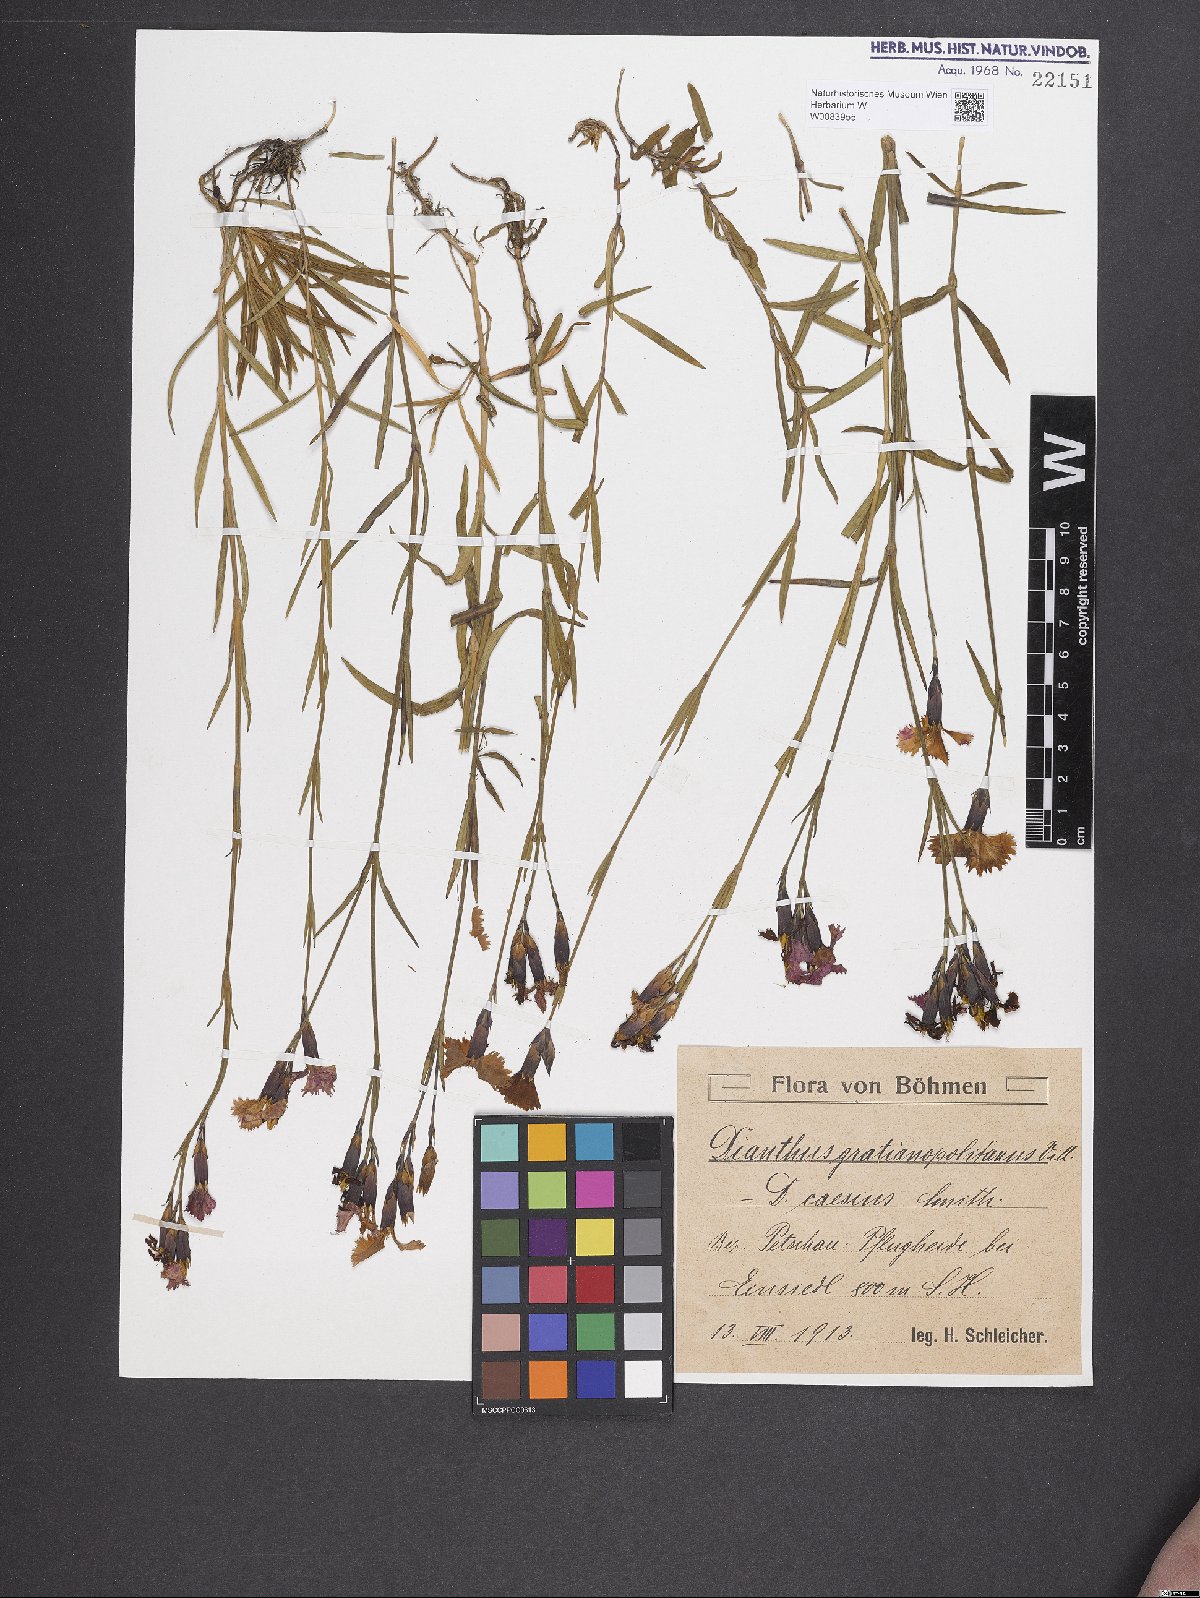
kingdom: Plantae
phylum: Tracheophyta
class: Magnoliopsida
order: Caryophyllales
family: Caryophyllaceae
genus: Dianthus
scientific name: Dianthus gratianopolitanus
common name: Cheddar pink
